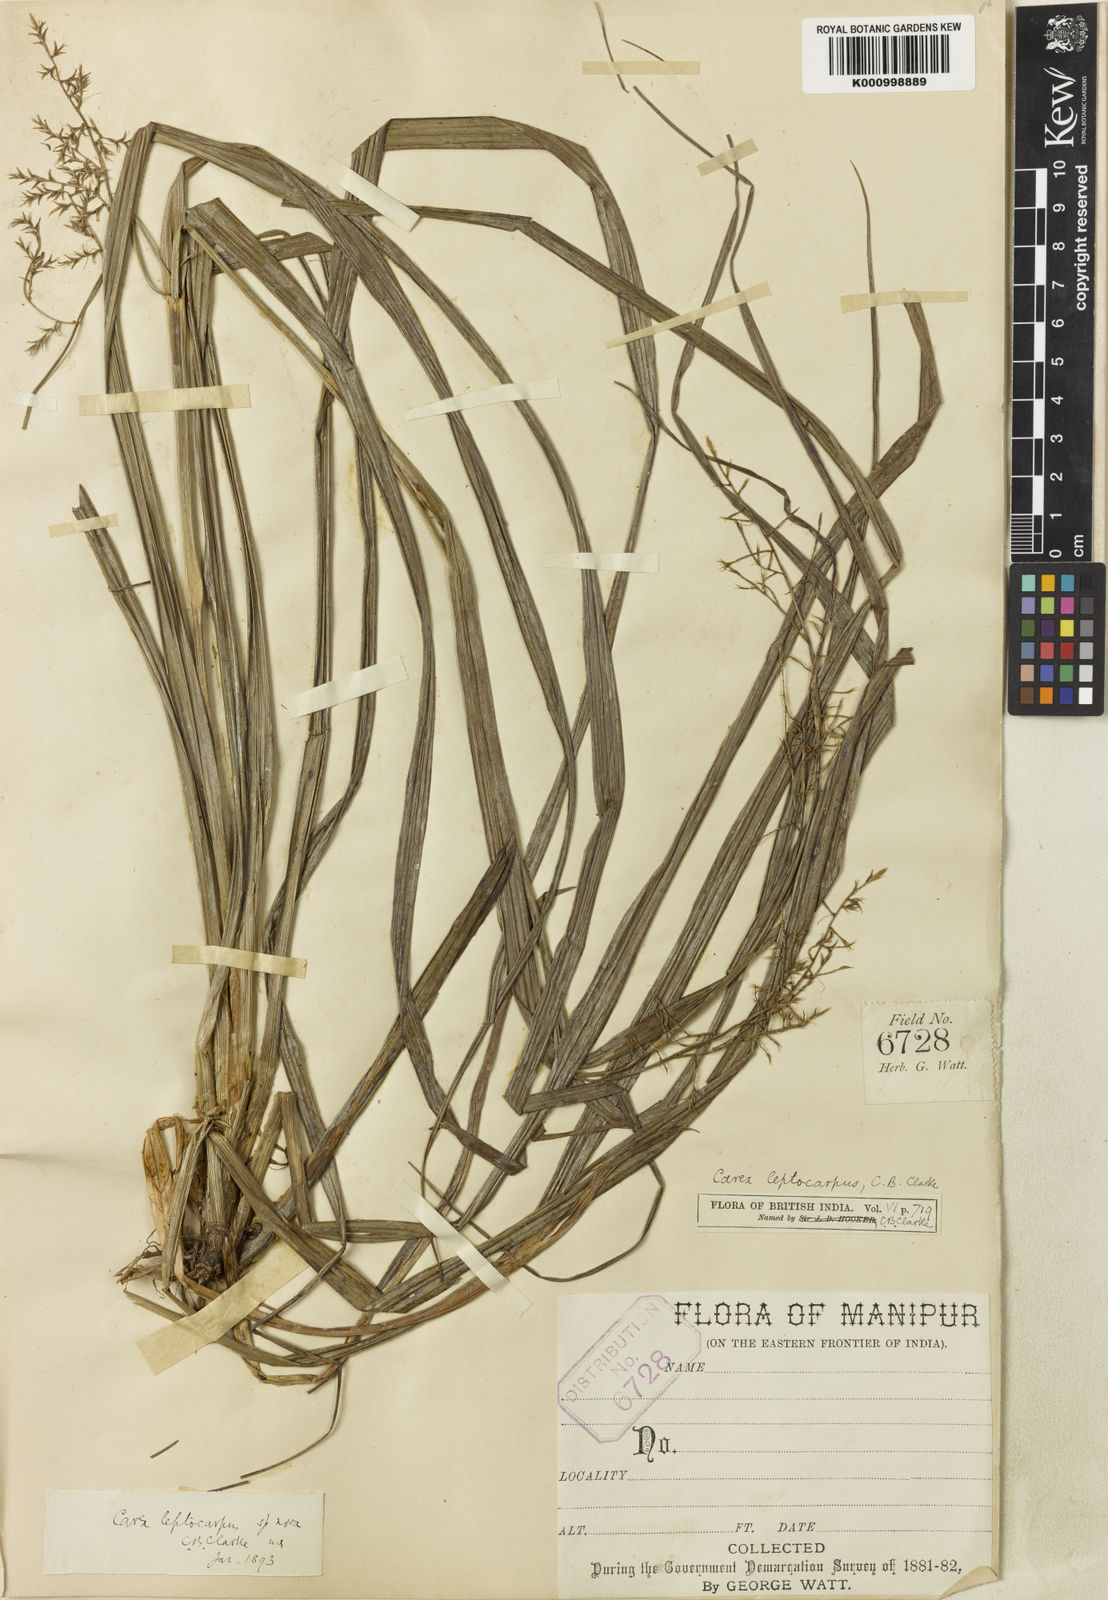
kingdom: Plantae
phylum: Tracheophyta
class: Liliopsida
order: Poales
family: Cyperaceae
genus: Carex
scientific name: Carex filicina
